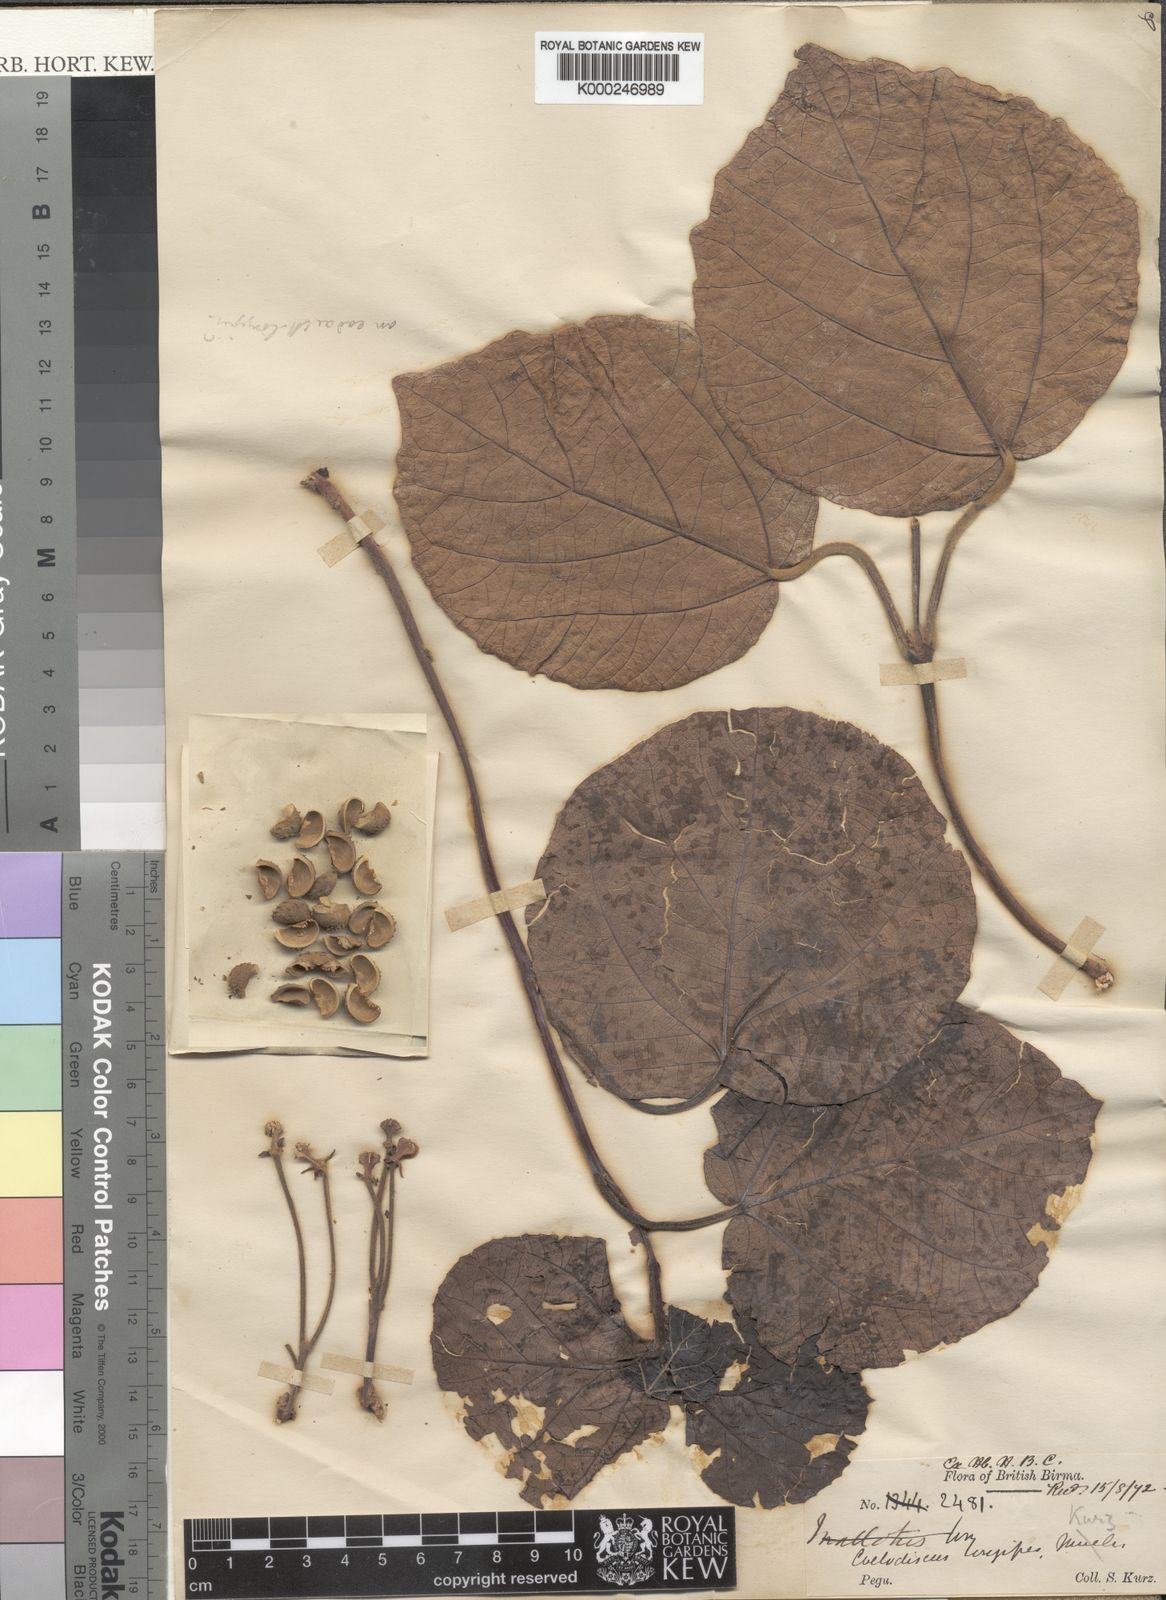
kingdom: Plantae
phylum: Tracheophyta
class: Magnoliopsida
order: Malpighiales
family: Euphorbiaceae
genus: Mallotus
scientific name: Mallotus longipes
